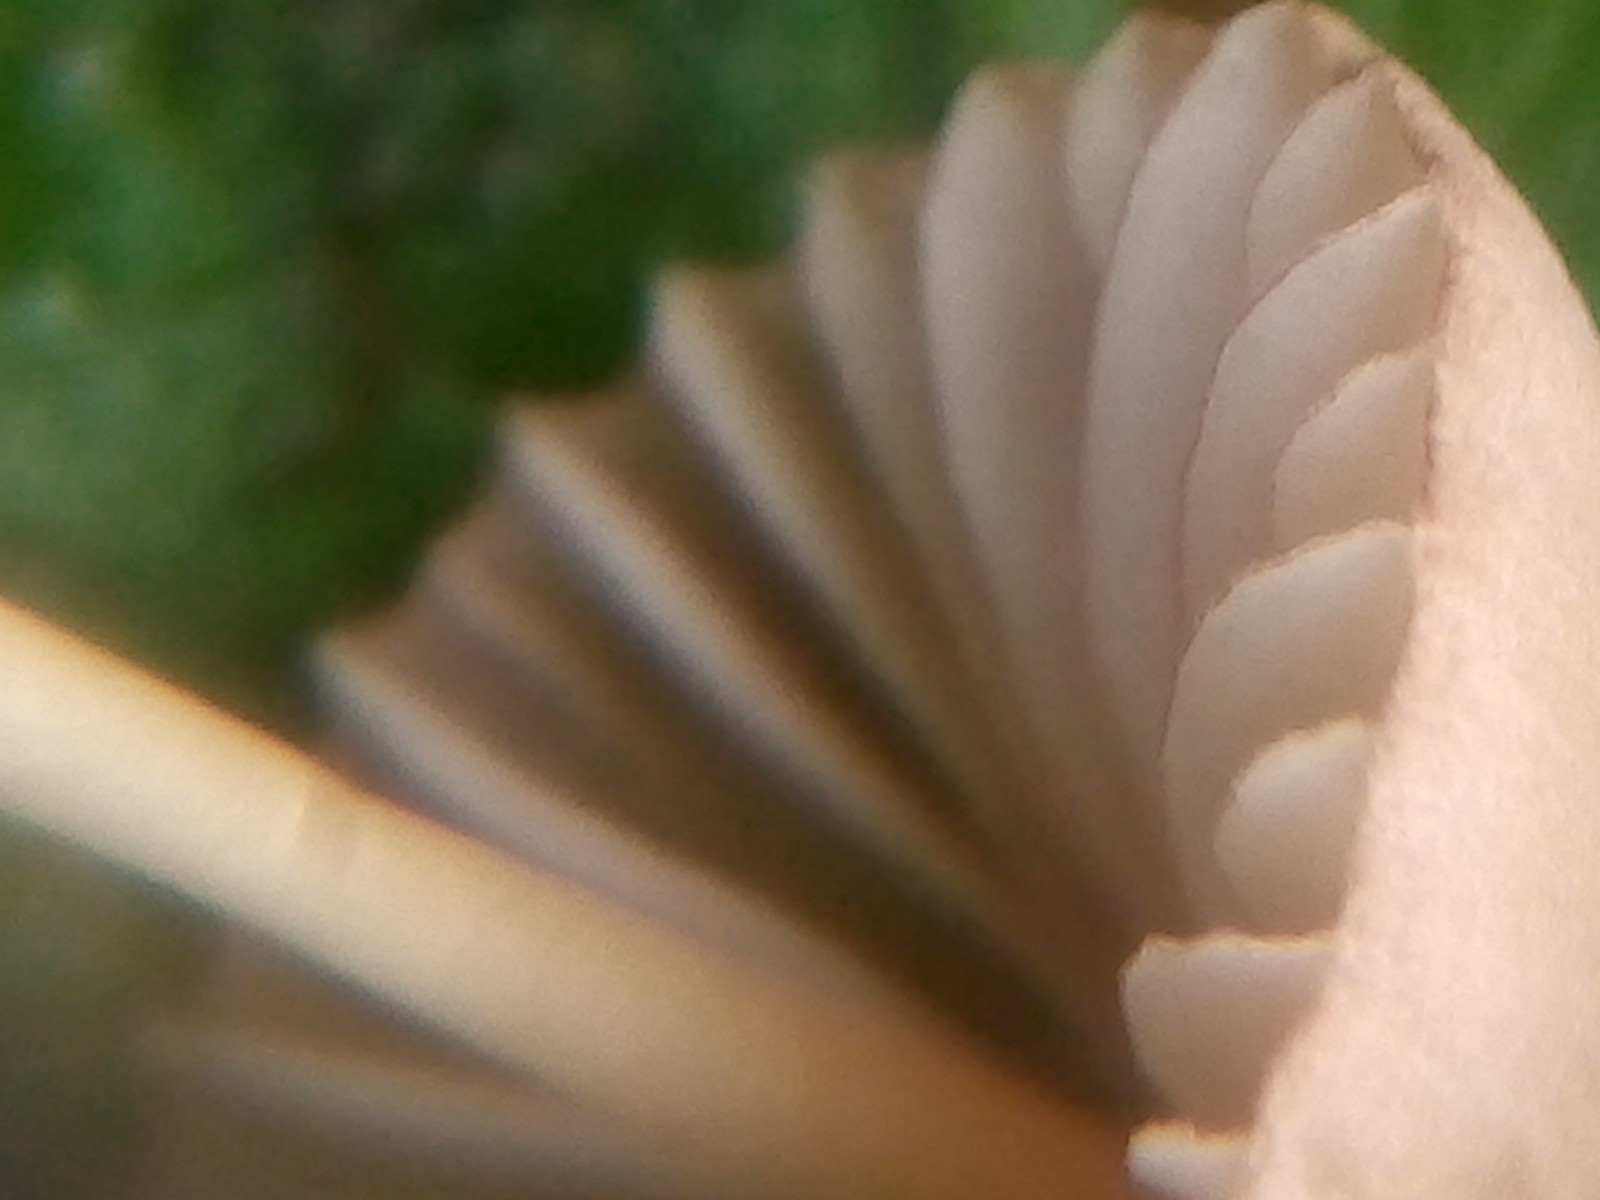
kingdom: Fungi
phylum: Basidiomycota
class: Agaricomycetes
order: Agaricales
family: Mycenaceae
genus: Mycena
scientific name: Mycena olivaceomarginata
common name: brunægget huesvamp
